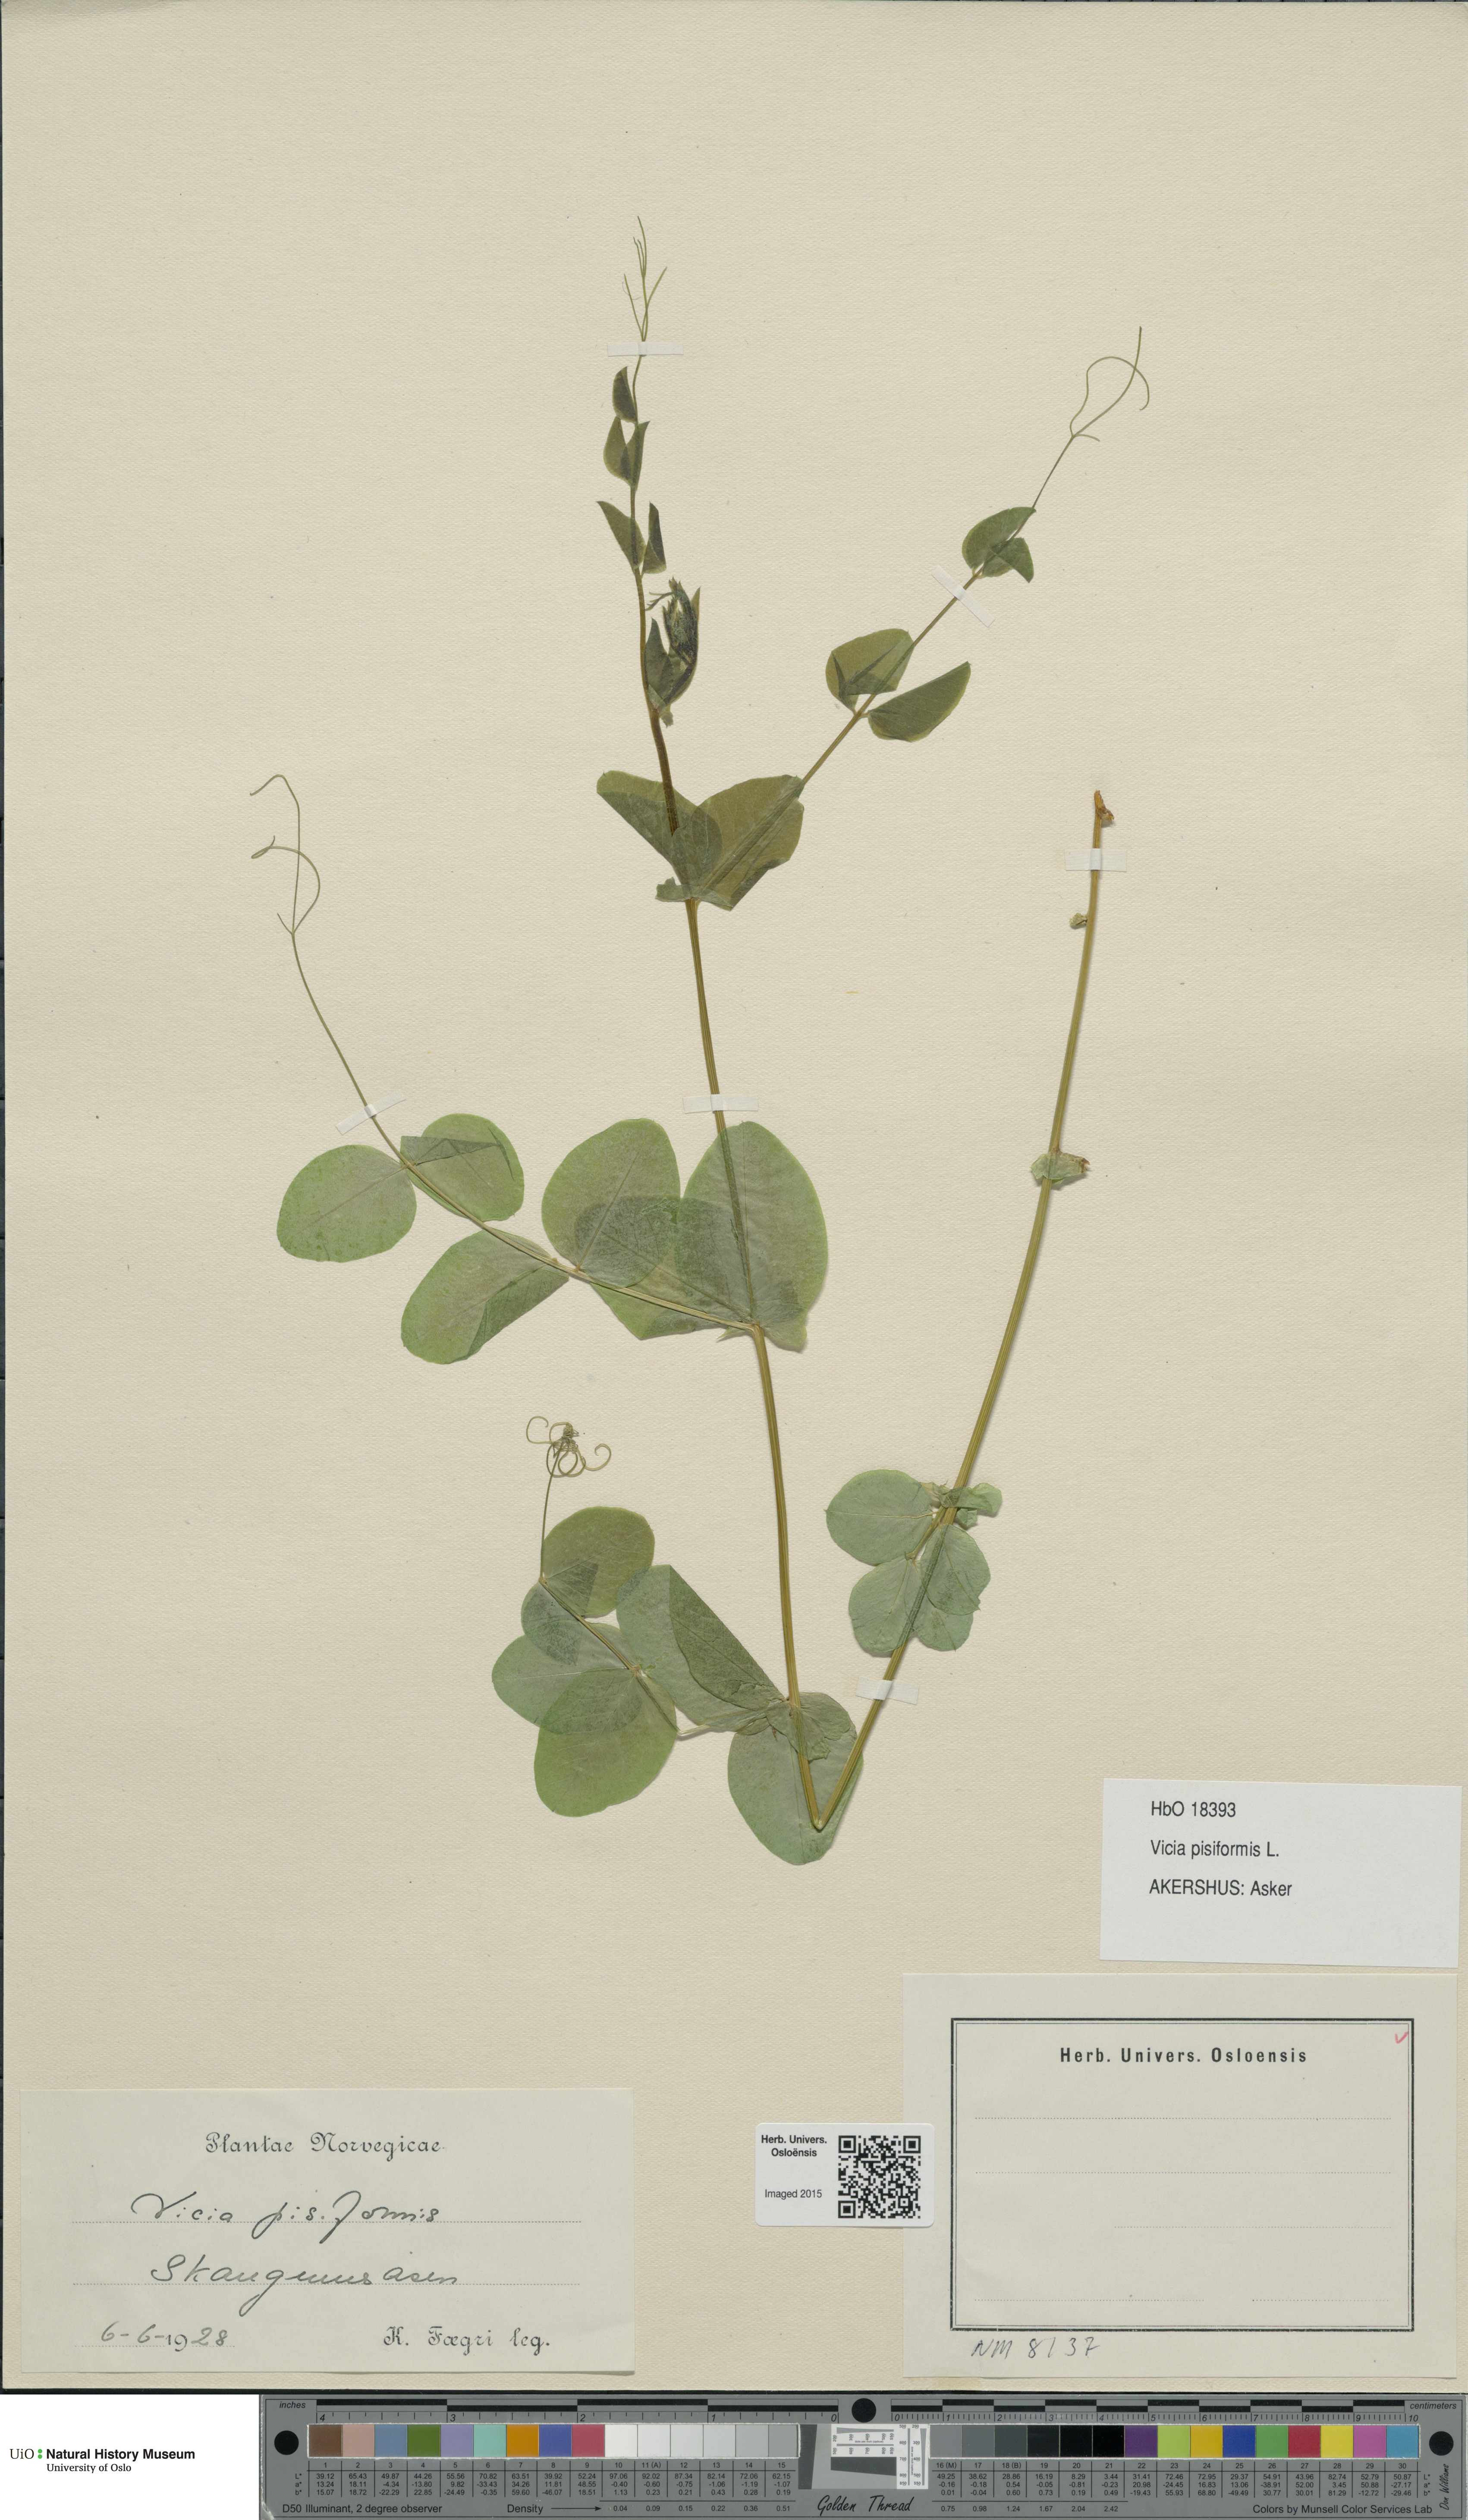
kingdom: Plantae
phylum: Tracheophyta
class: Magnoliopsida
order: Fabales
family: Fabaceae
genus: Vicia
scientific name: Vicia pisiformis
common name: Pale-flower vetch
